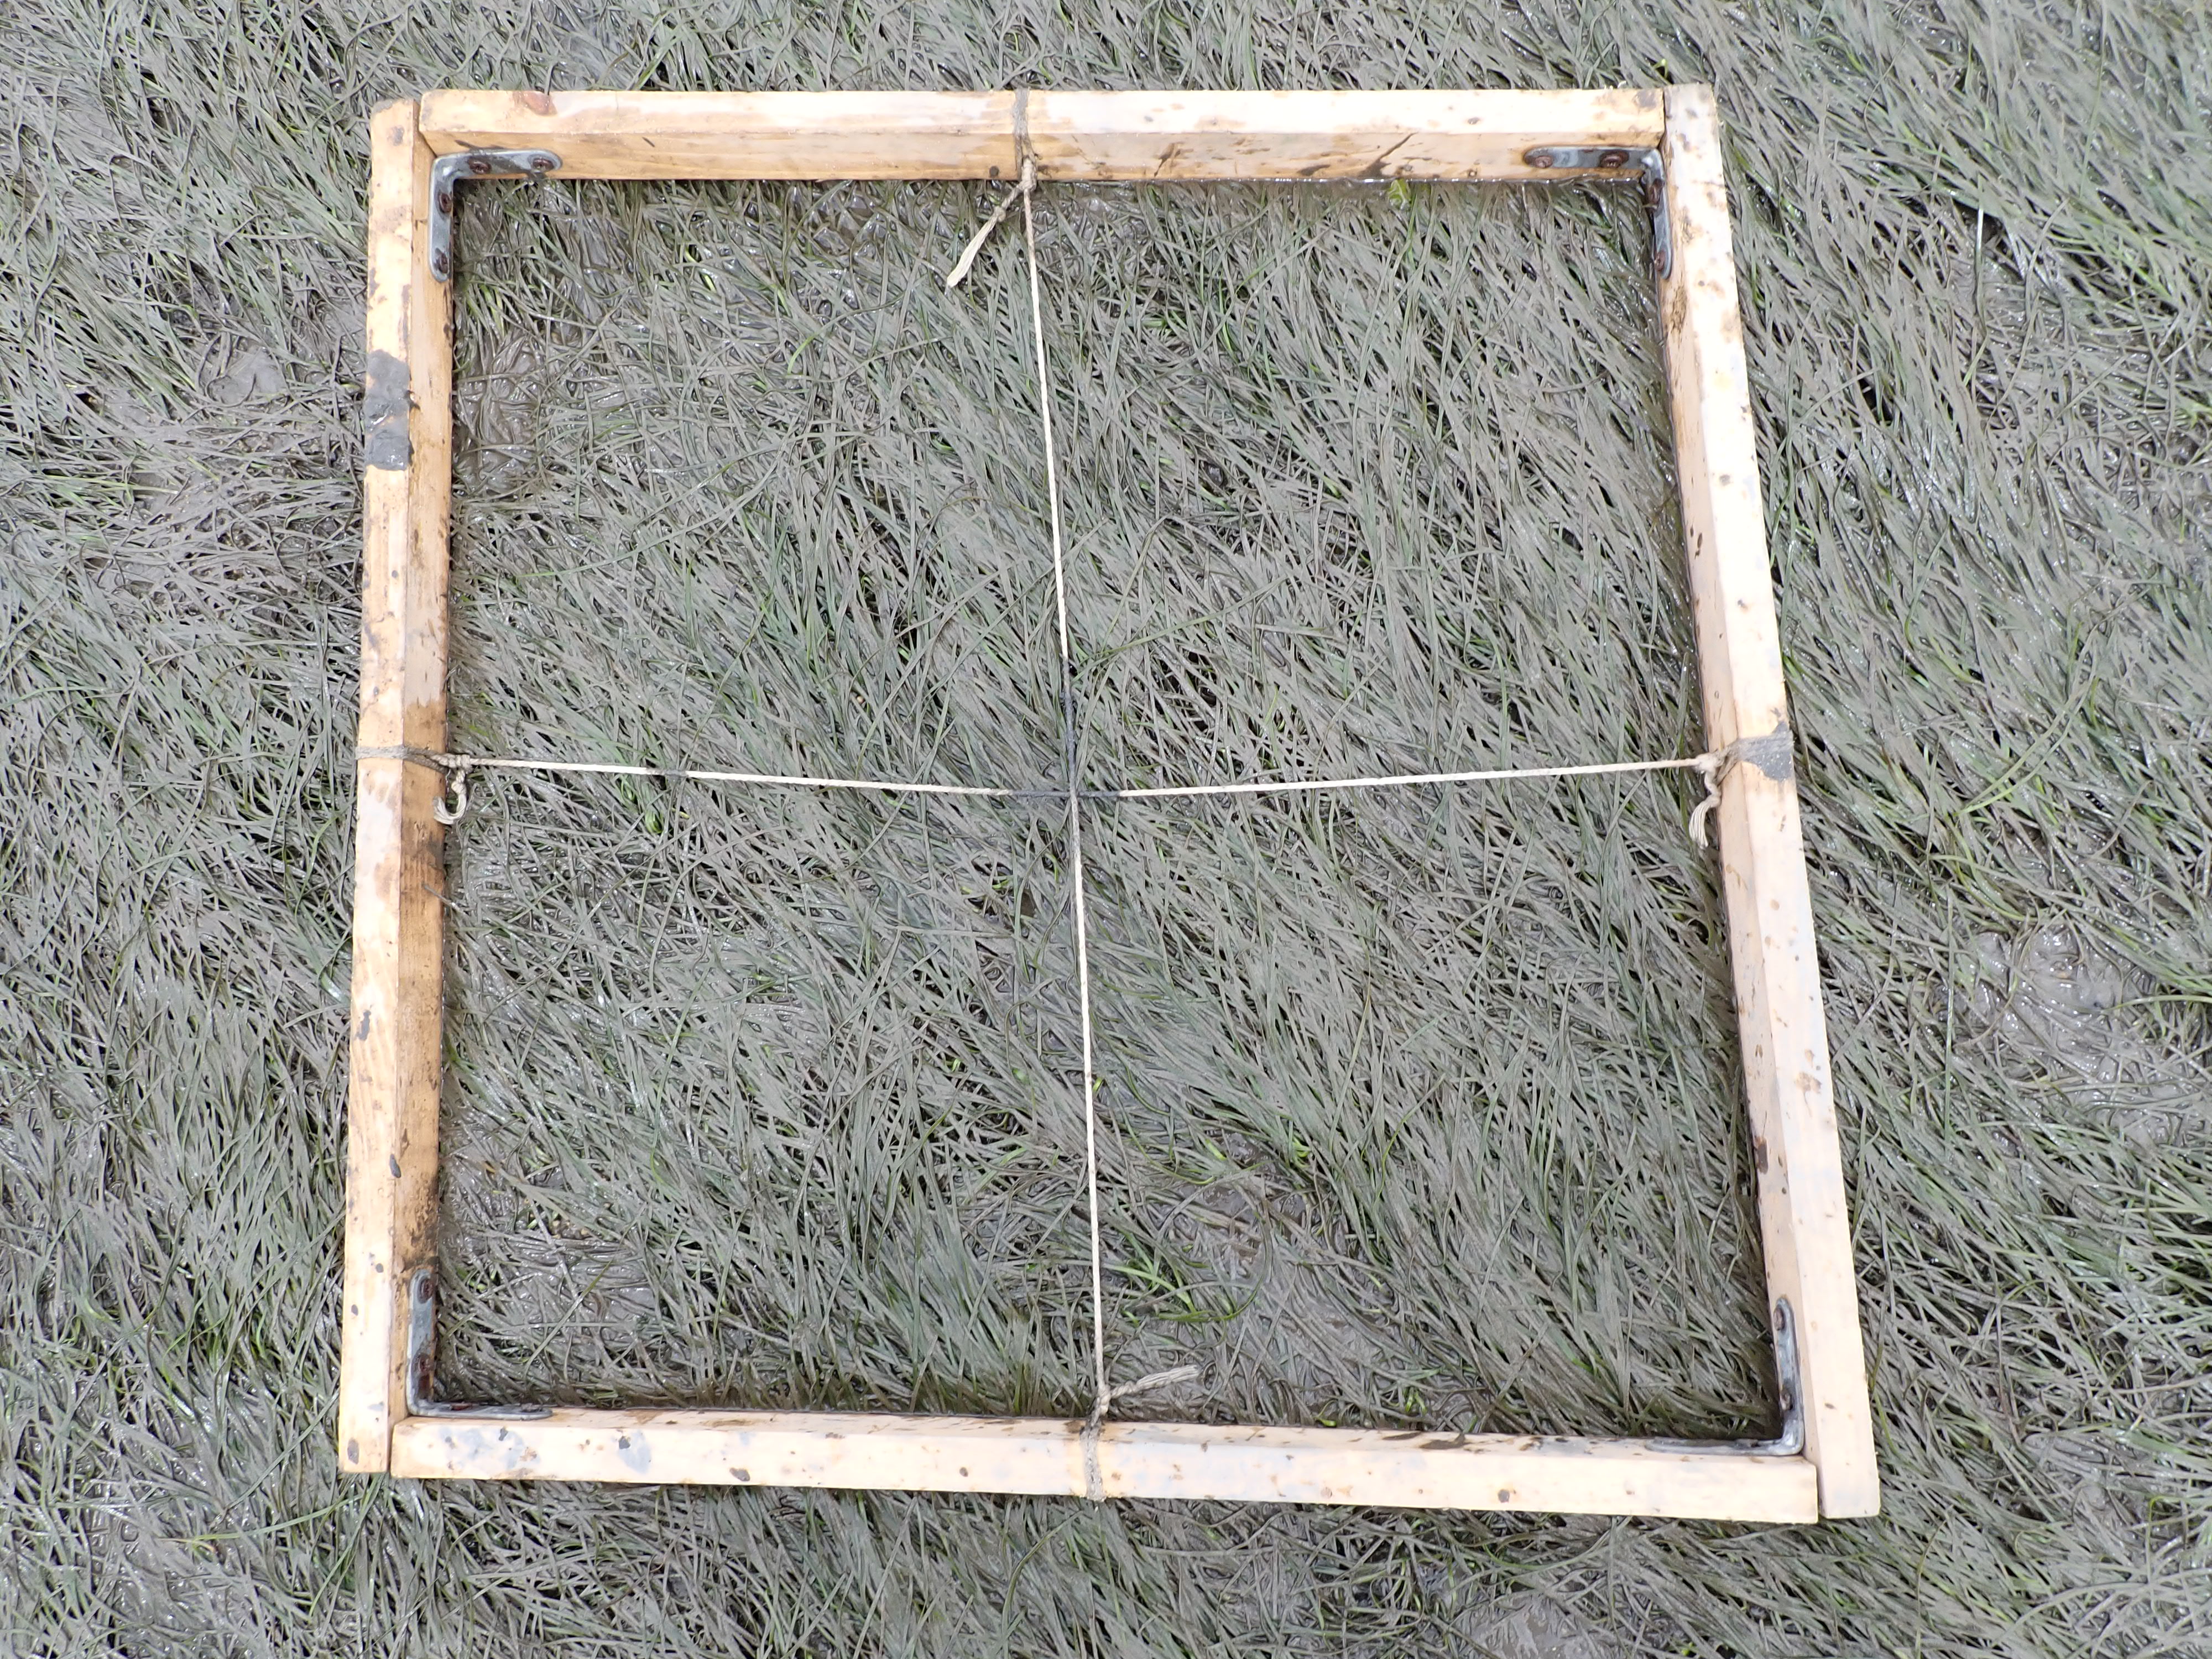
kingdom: Plantae
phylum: Tracheophyta
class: Liliopsida
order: Alismatales
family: Zosteraceae
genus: Zostera
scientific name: Zostera noltii
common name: Dwarf eelgrass
